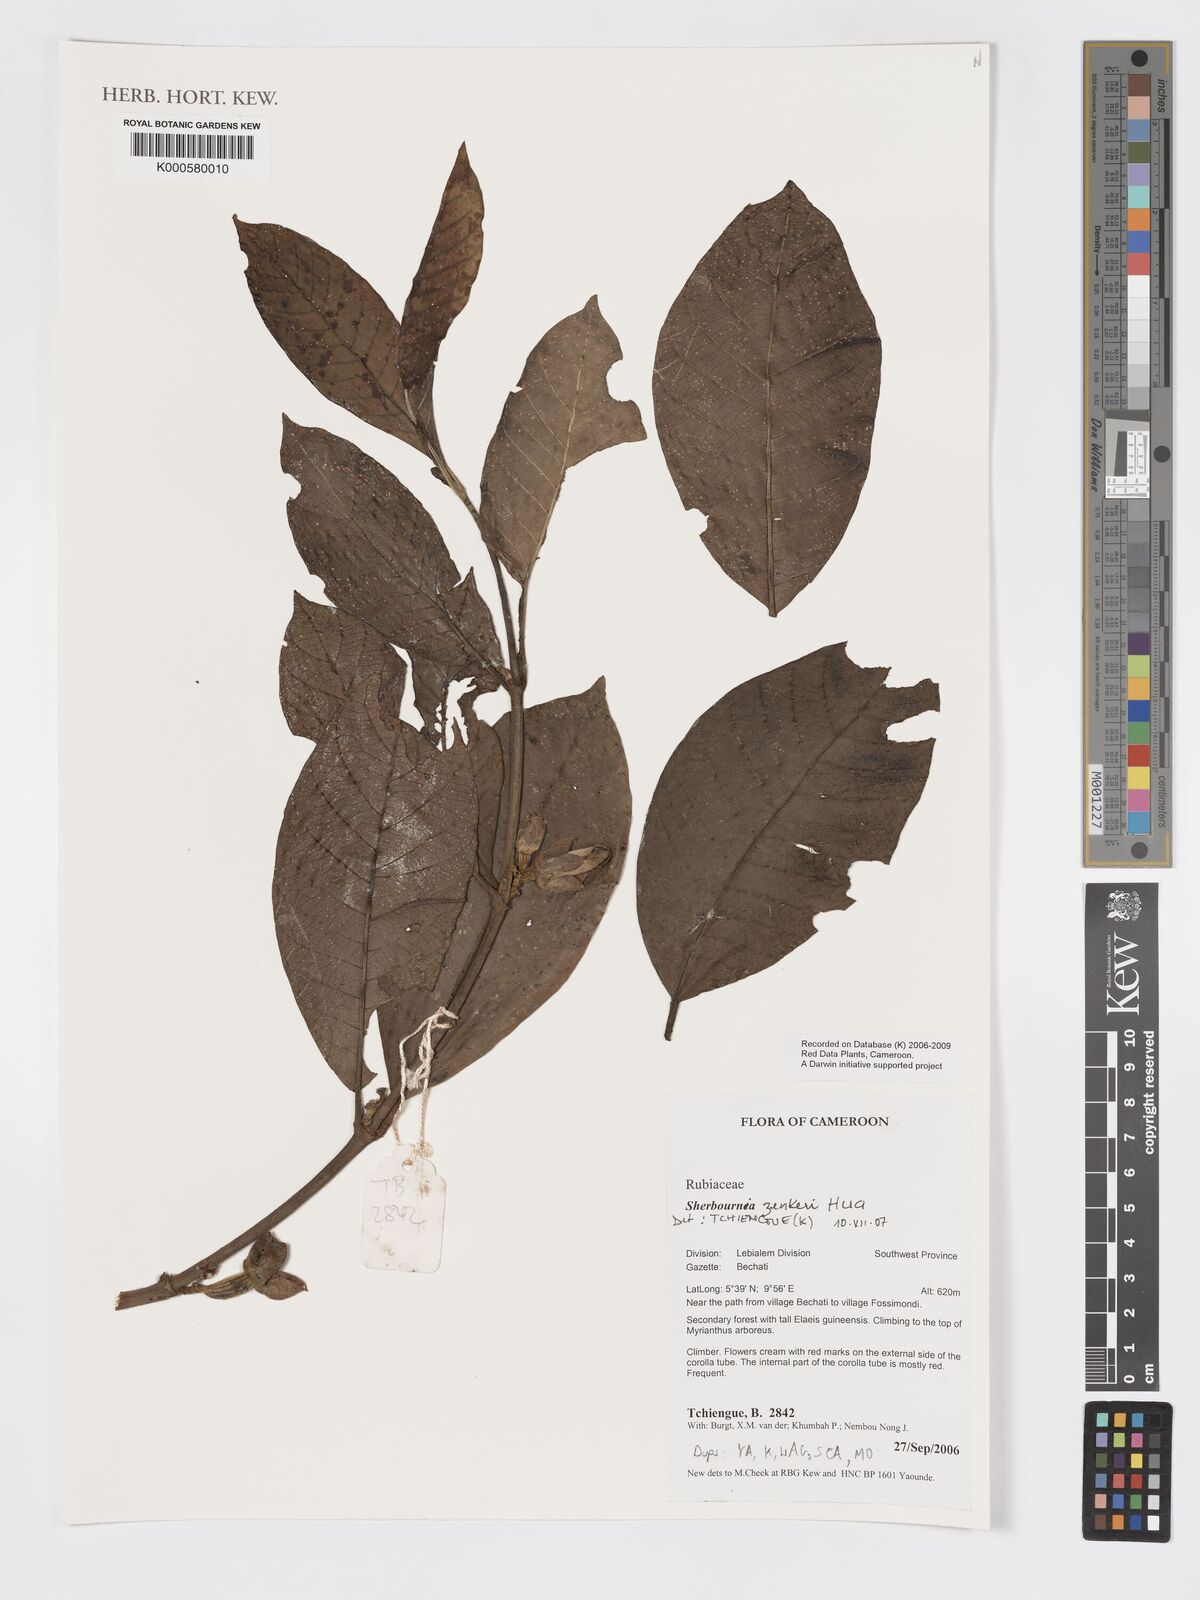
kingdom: Plantae
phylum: Tracheophyta
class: Magnoliopsida
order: Gentianales
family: Rubiaceae
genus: Sherbournia
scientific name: Sherbournia zenkeri
